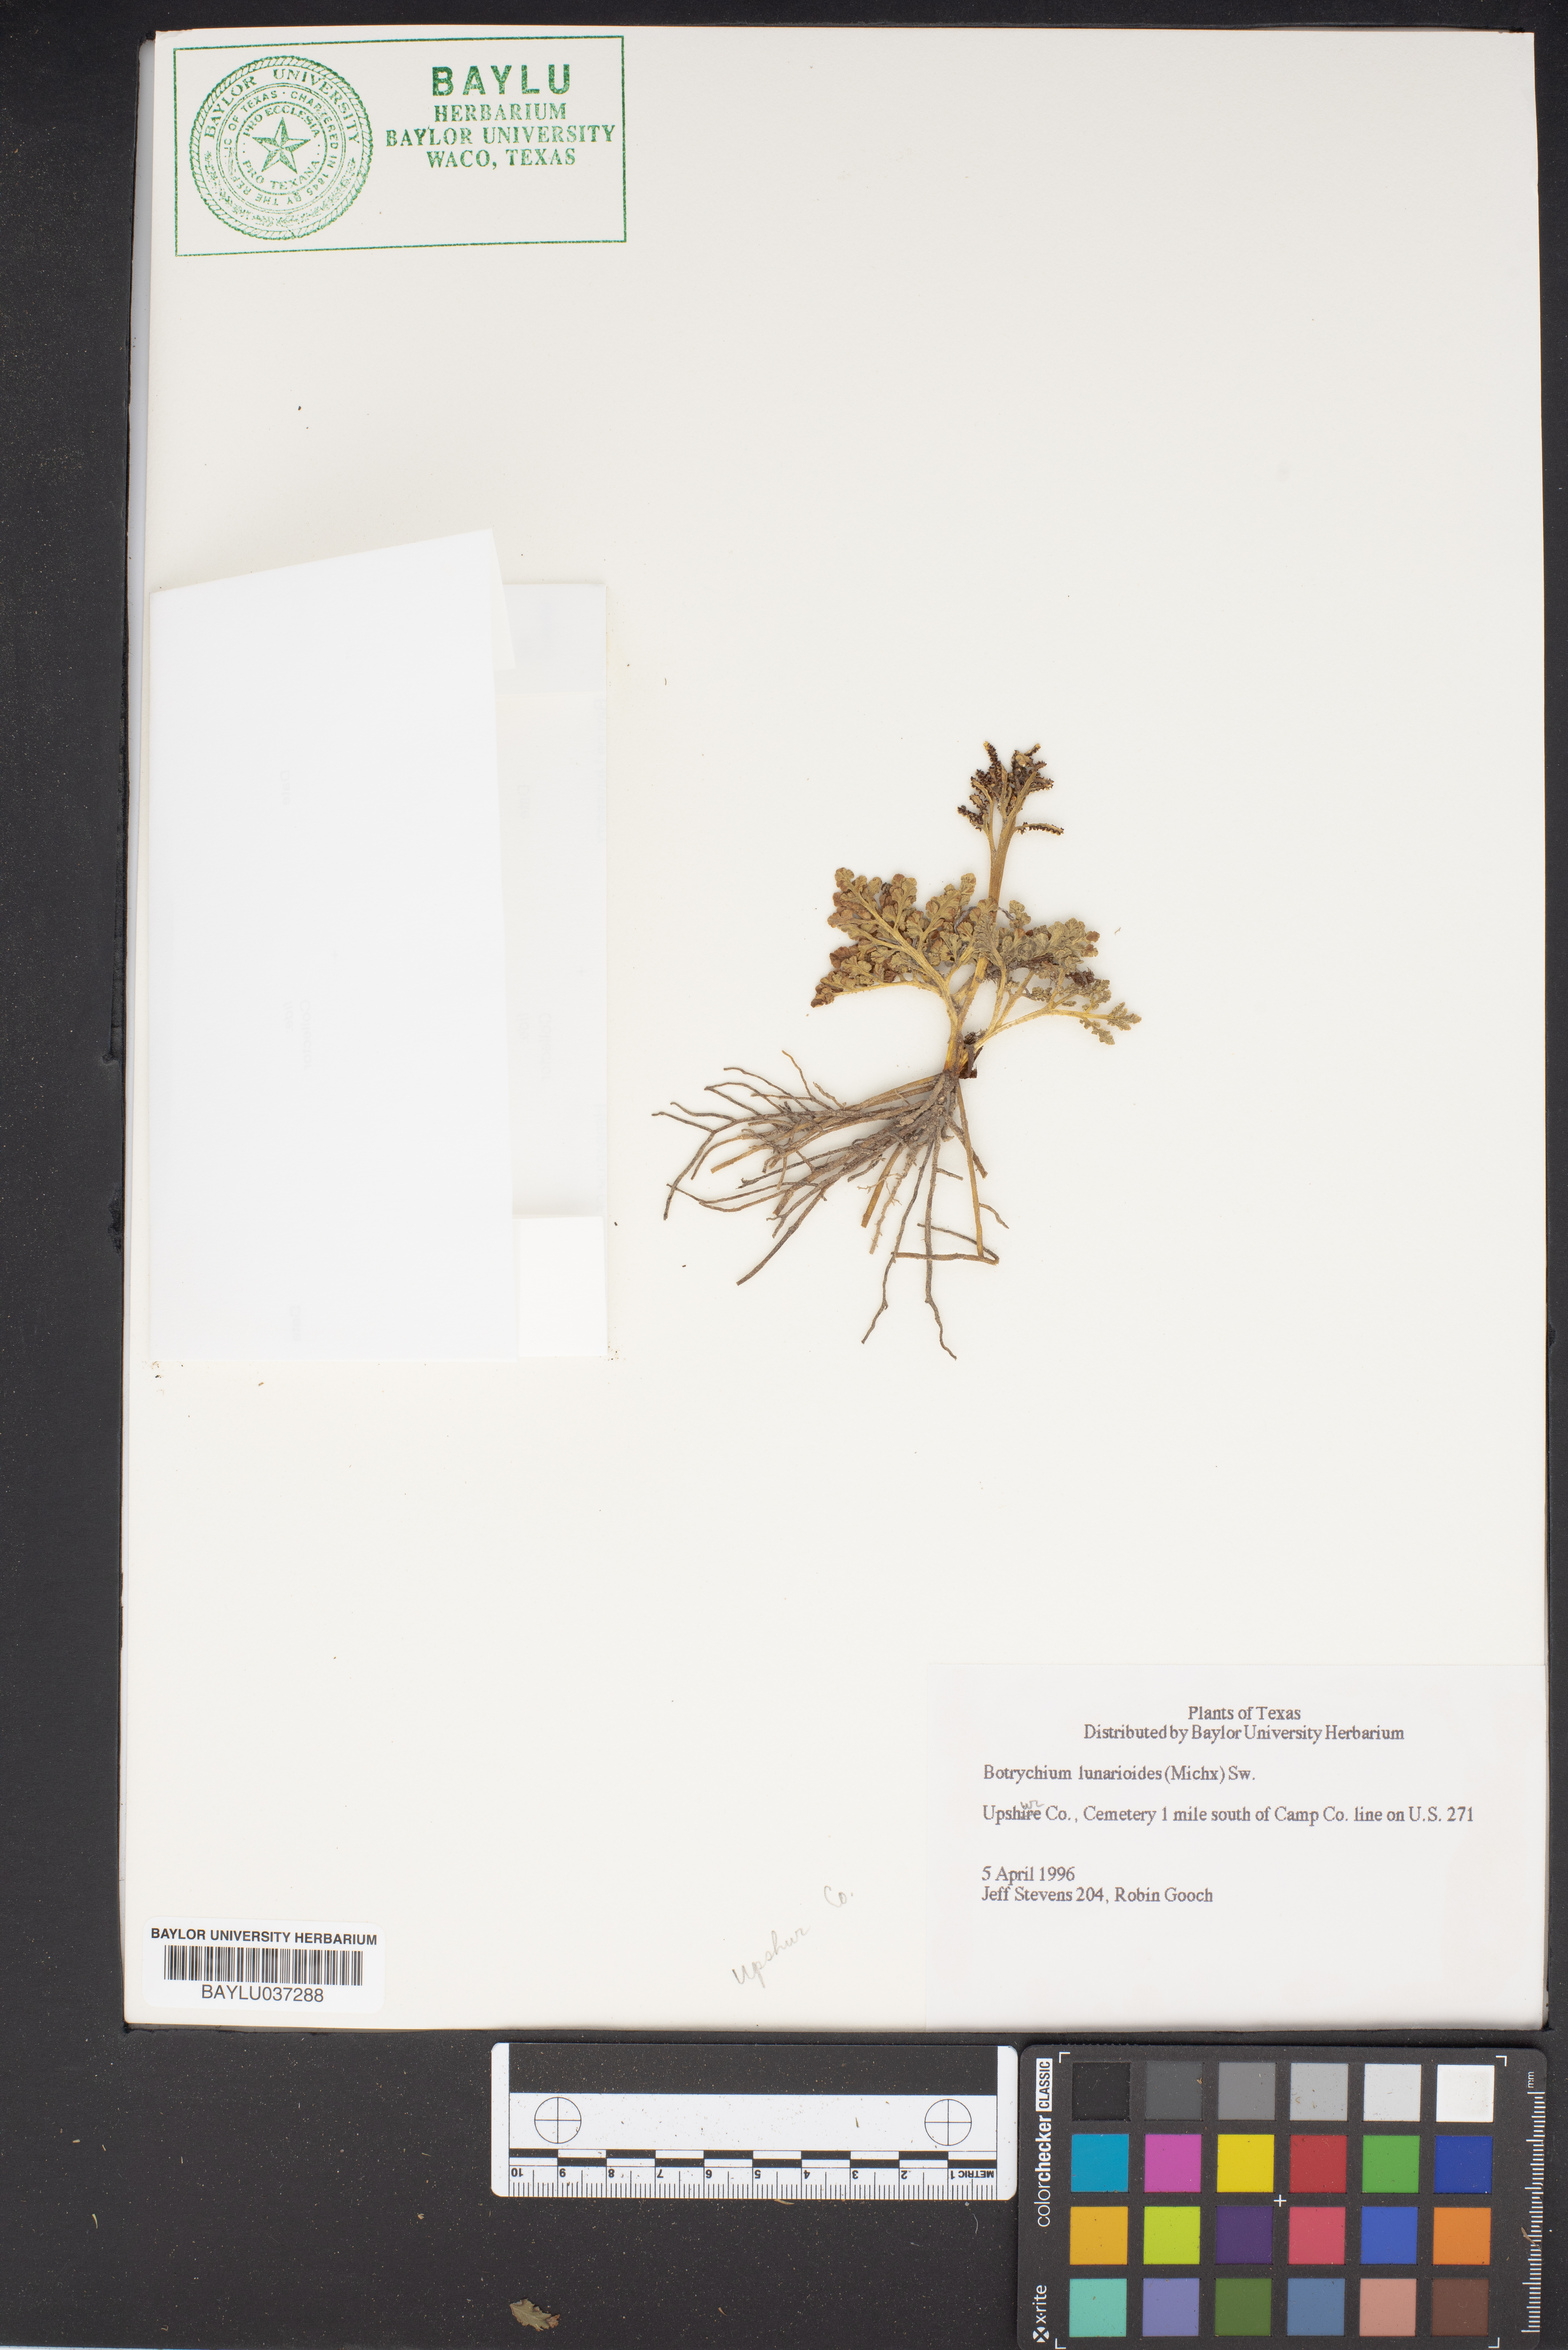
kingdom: Plantae
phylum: Tracheophyta
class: Polypodiopsida
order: Ophioglossales
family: Ophioglossaceae
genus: Sceptridium
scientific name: Sceptridium lunarioides
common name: Prostrate grapefern
